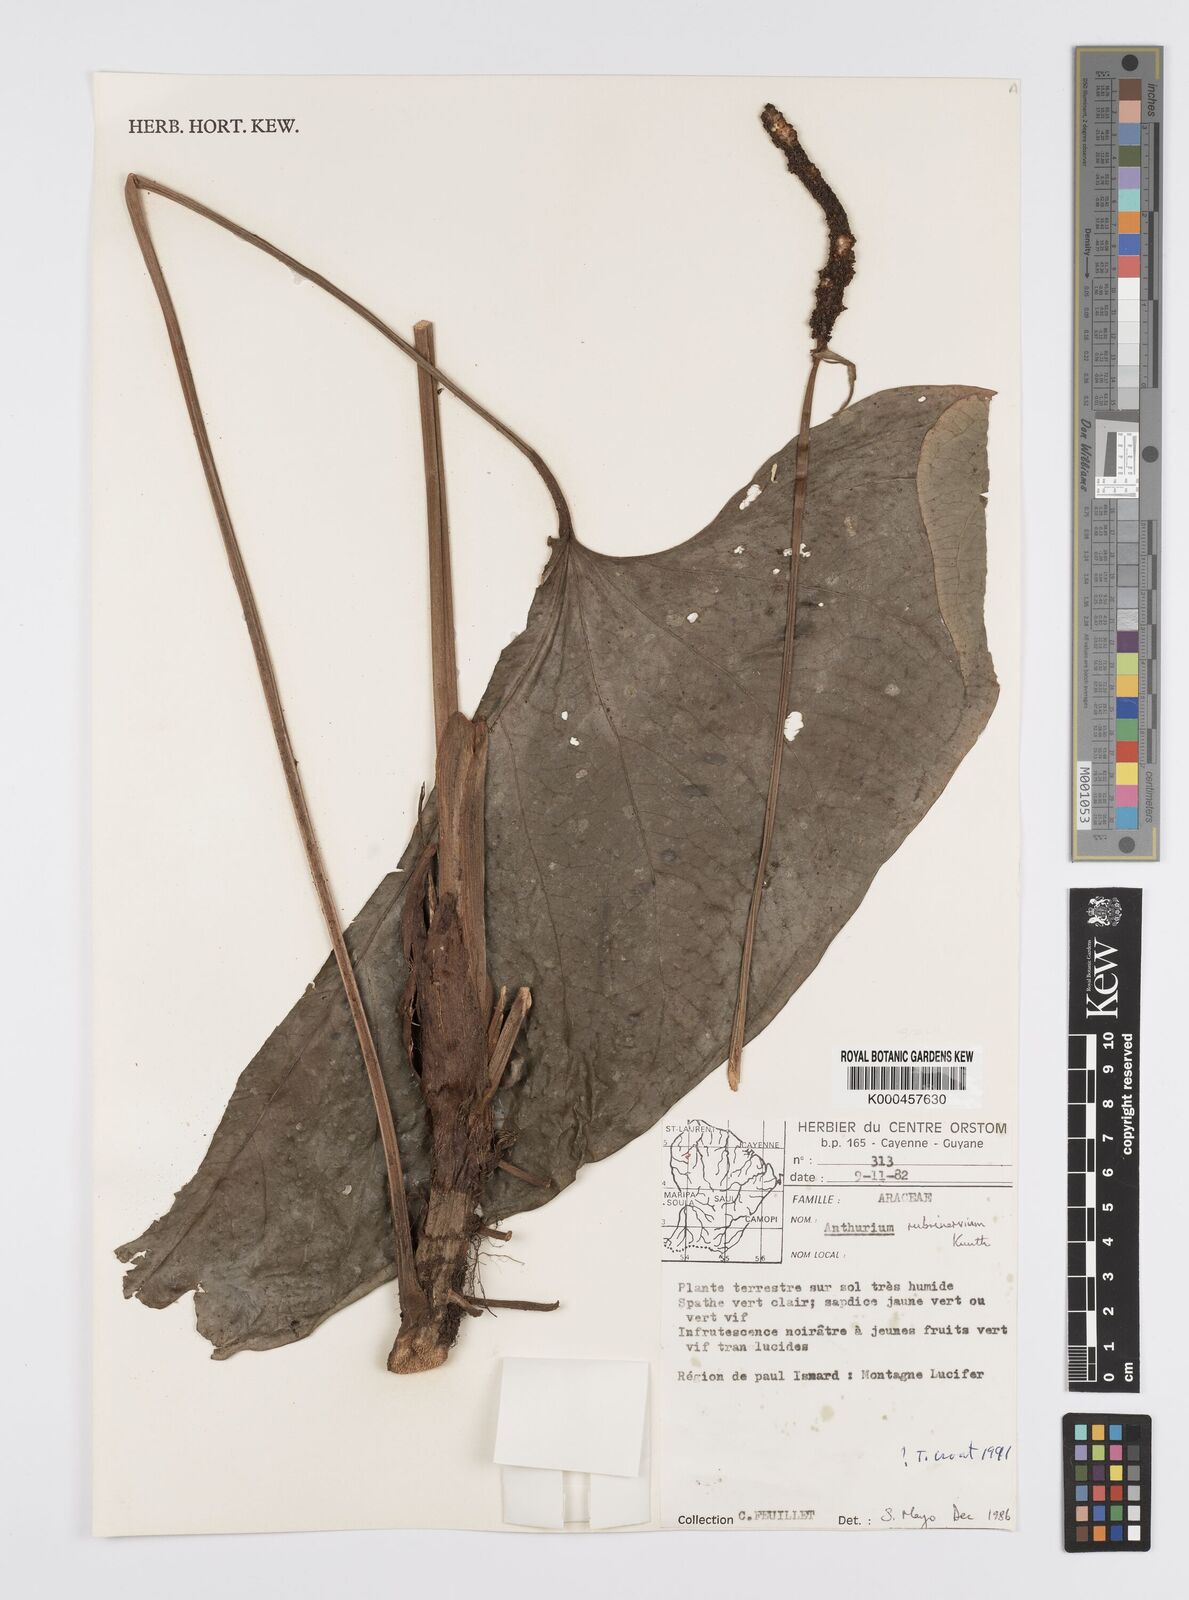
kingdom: Plantae
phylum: Tracheophyta
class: Liliopsida
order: Alismatales
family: Araceae
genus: Anthurium
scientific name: Anthurium sagittatum
